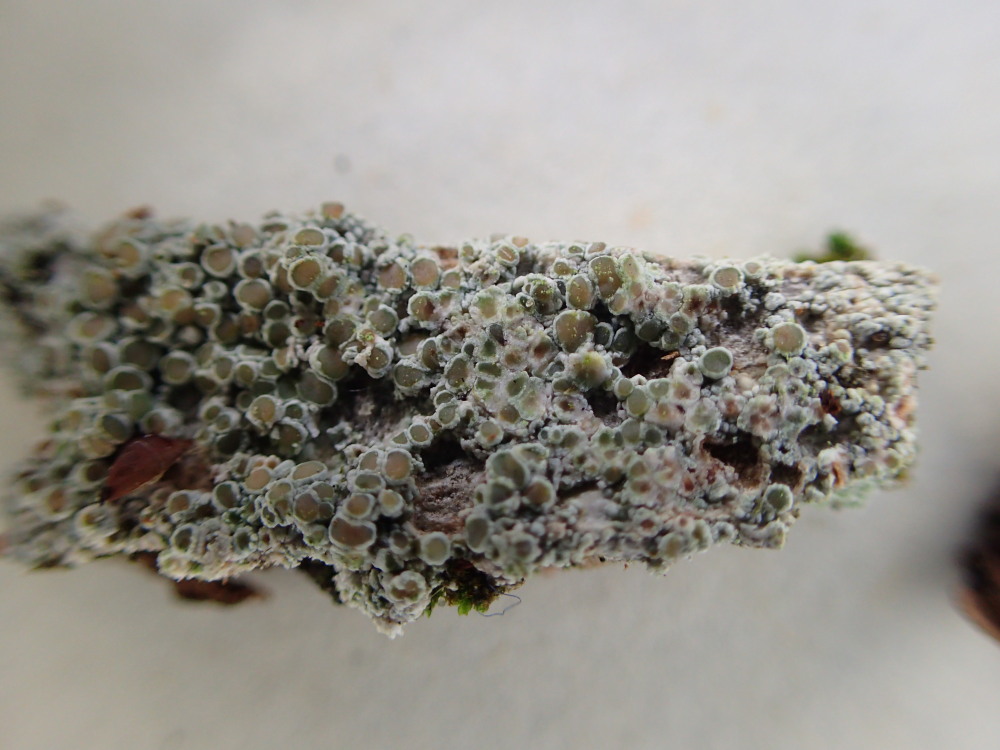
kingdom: Fungi
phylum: Ascomycota
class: Lecanoromycetes
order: Lecanorales
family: Lecanoraceae
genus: Lecanora
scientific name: Lecanora chlarotera
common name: brun kantskivelav
